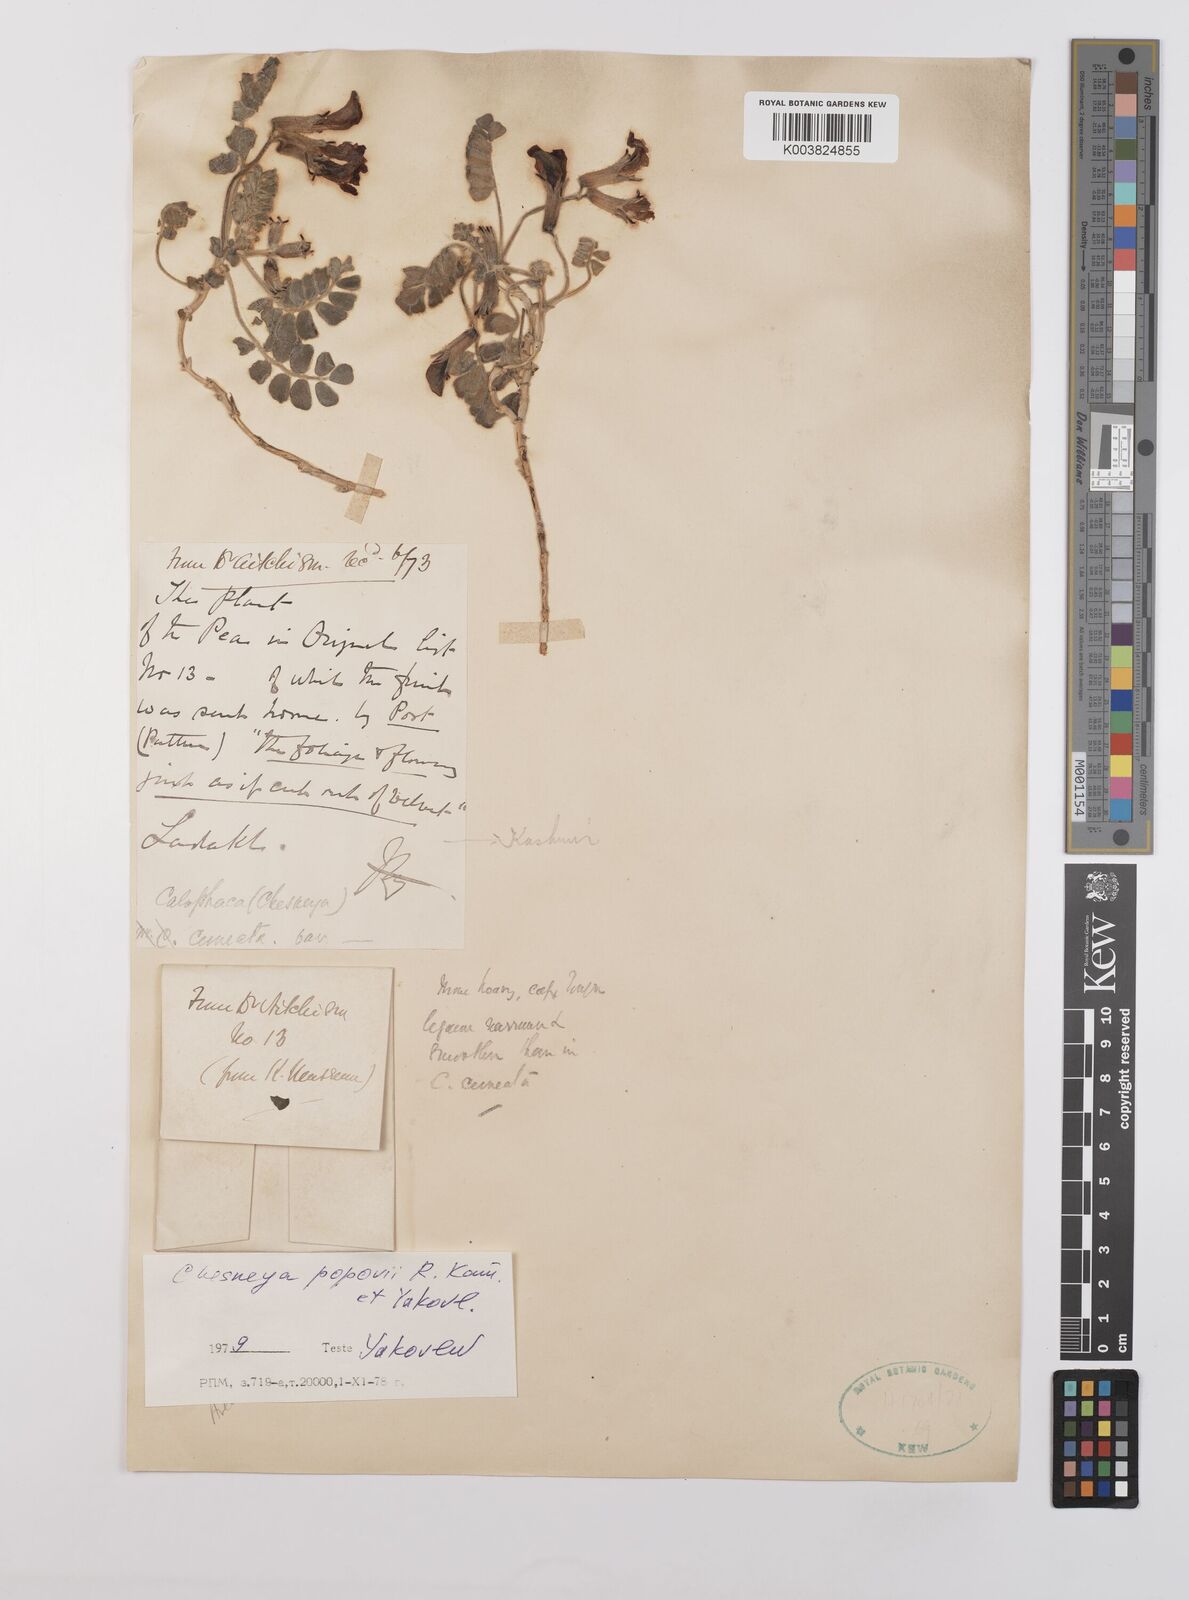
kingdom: Plantae
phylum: Tracheophyta
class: Magnoliopsida
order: Fabales
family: Fabaceae
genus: Chesneya
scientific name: Chesneya cuneata
